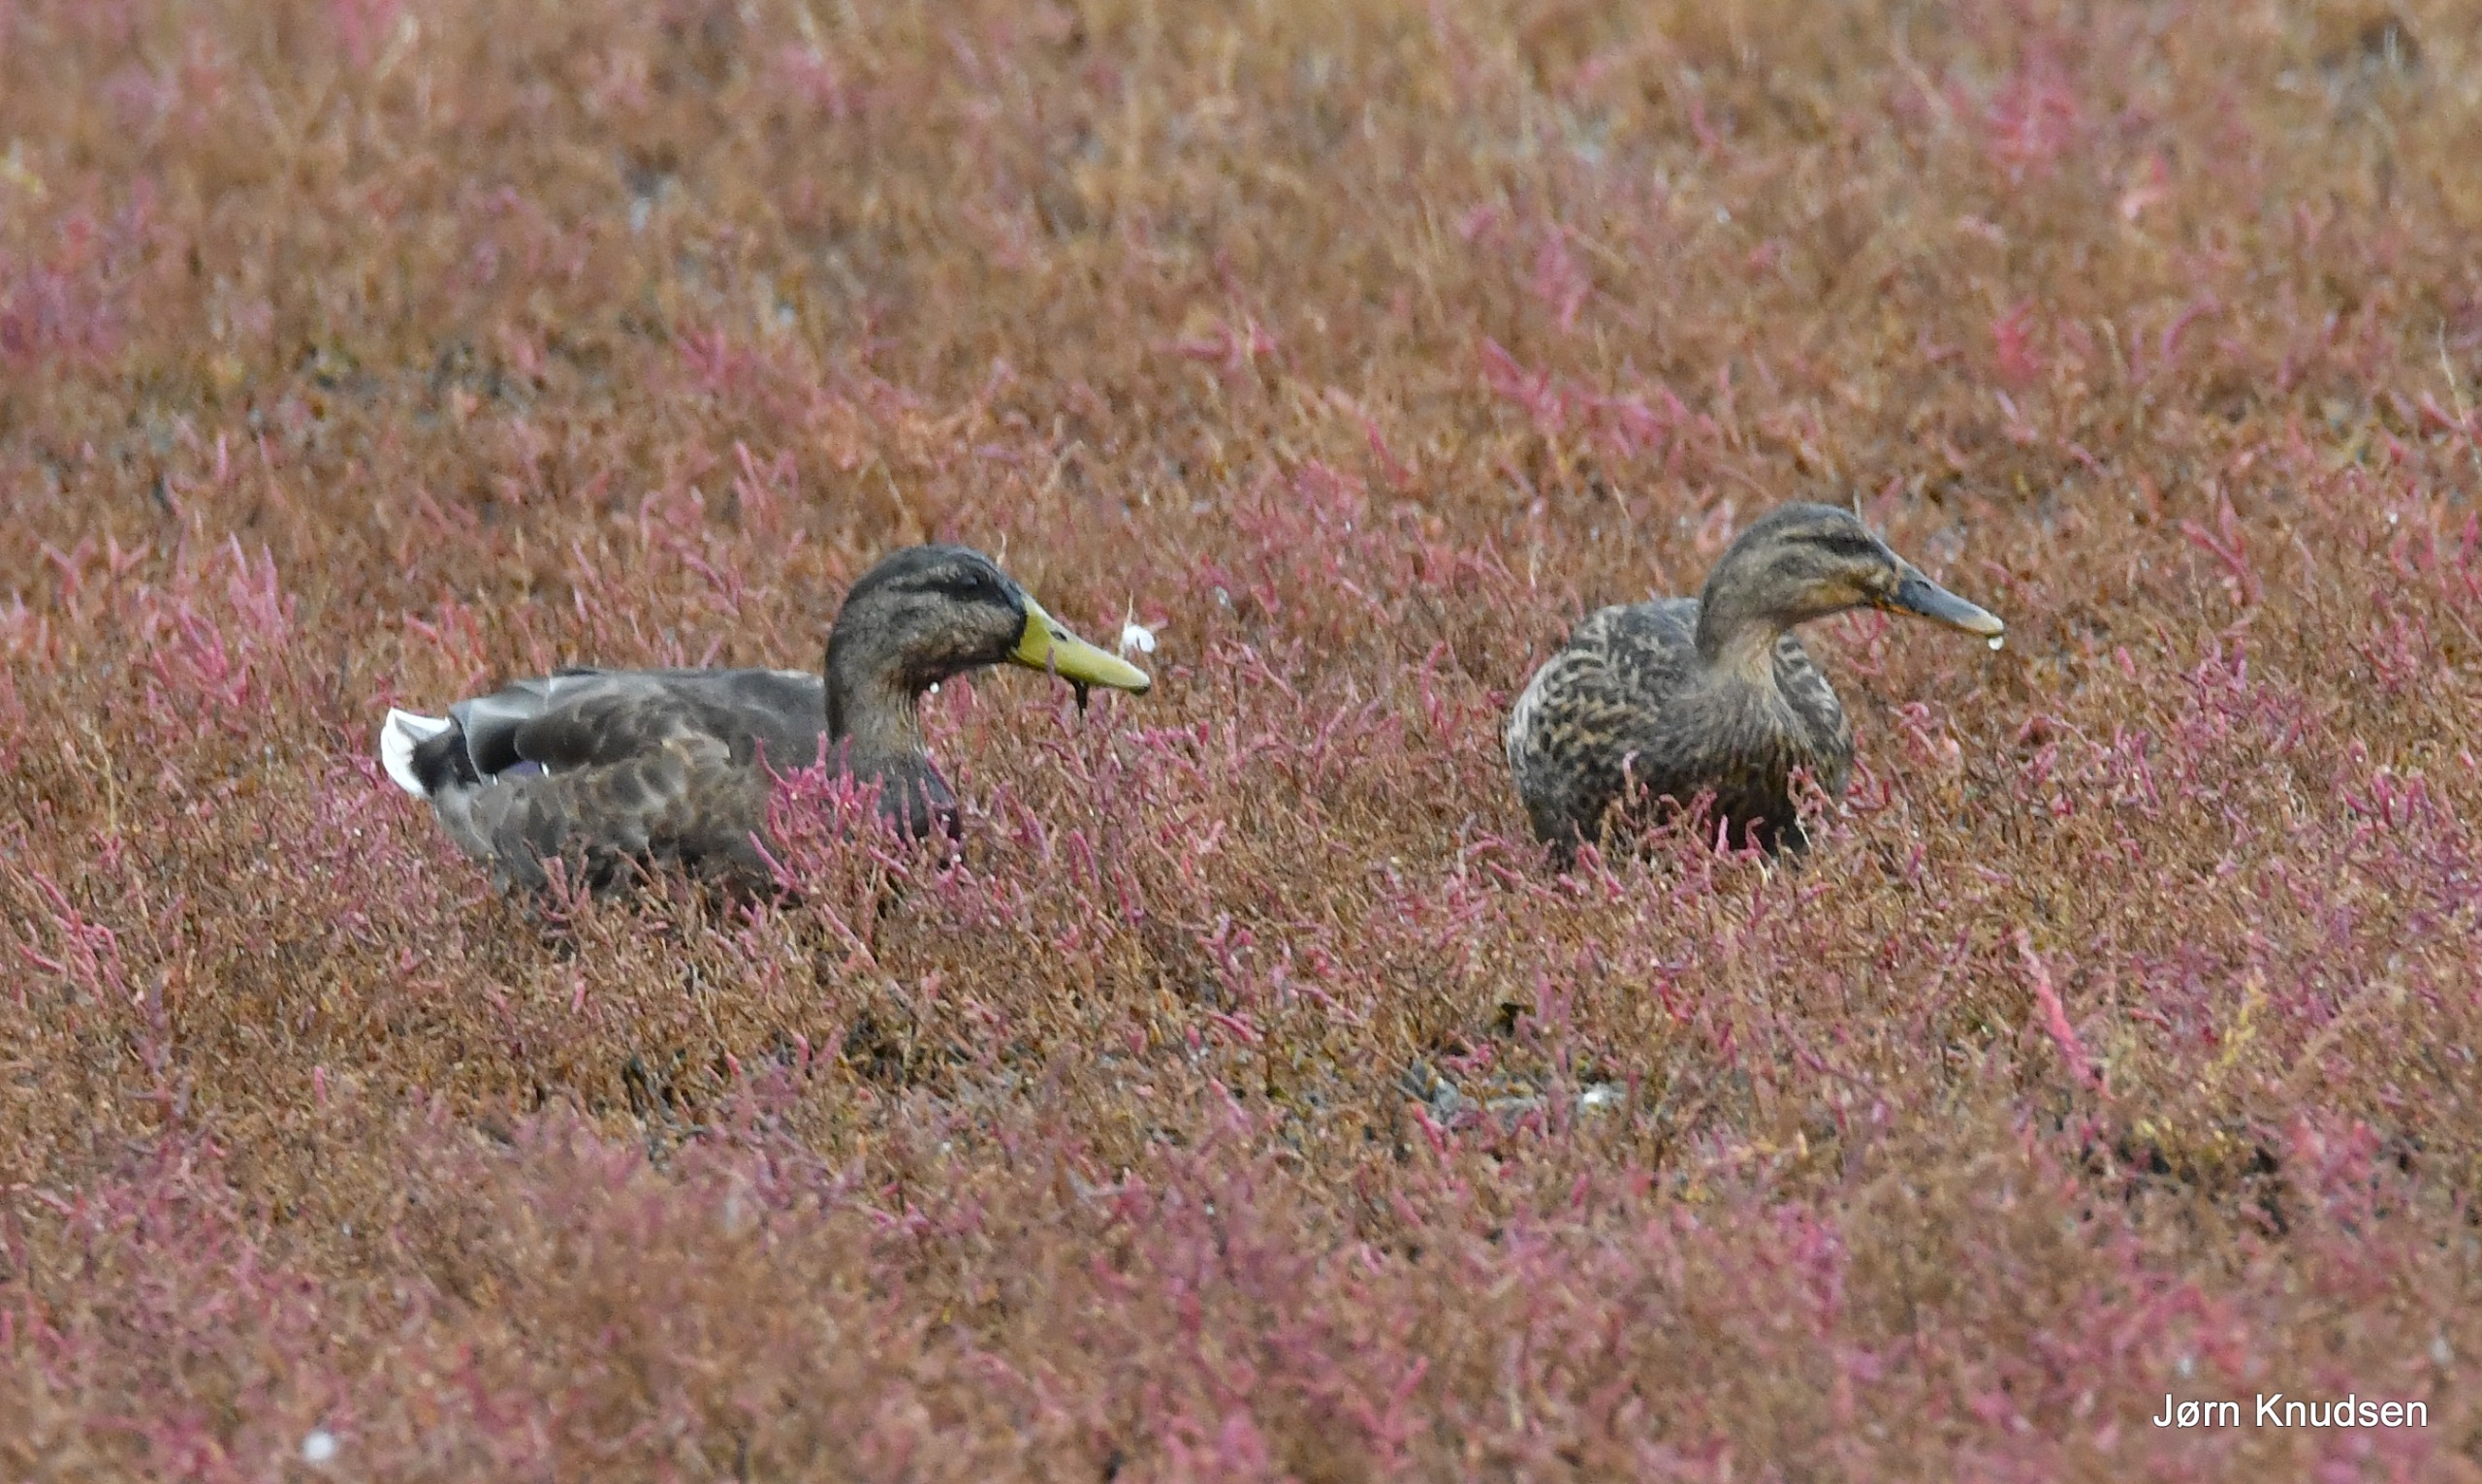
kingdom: Animalia
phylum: Chordata
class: Aves
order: Anseriformes
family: Anatidae
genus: Anas
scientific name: Anas platyrhynchos
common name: Gråand
